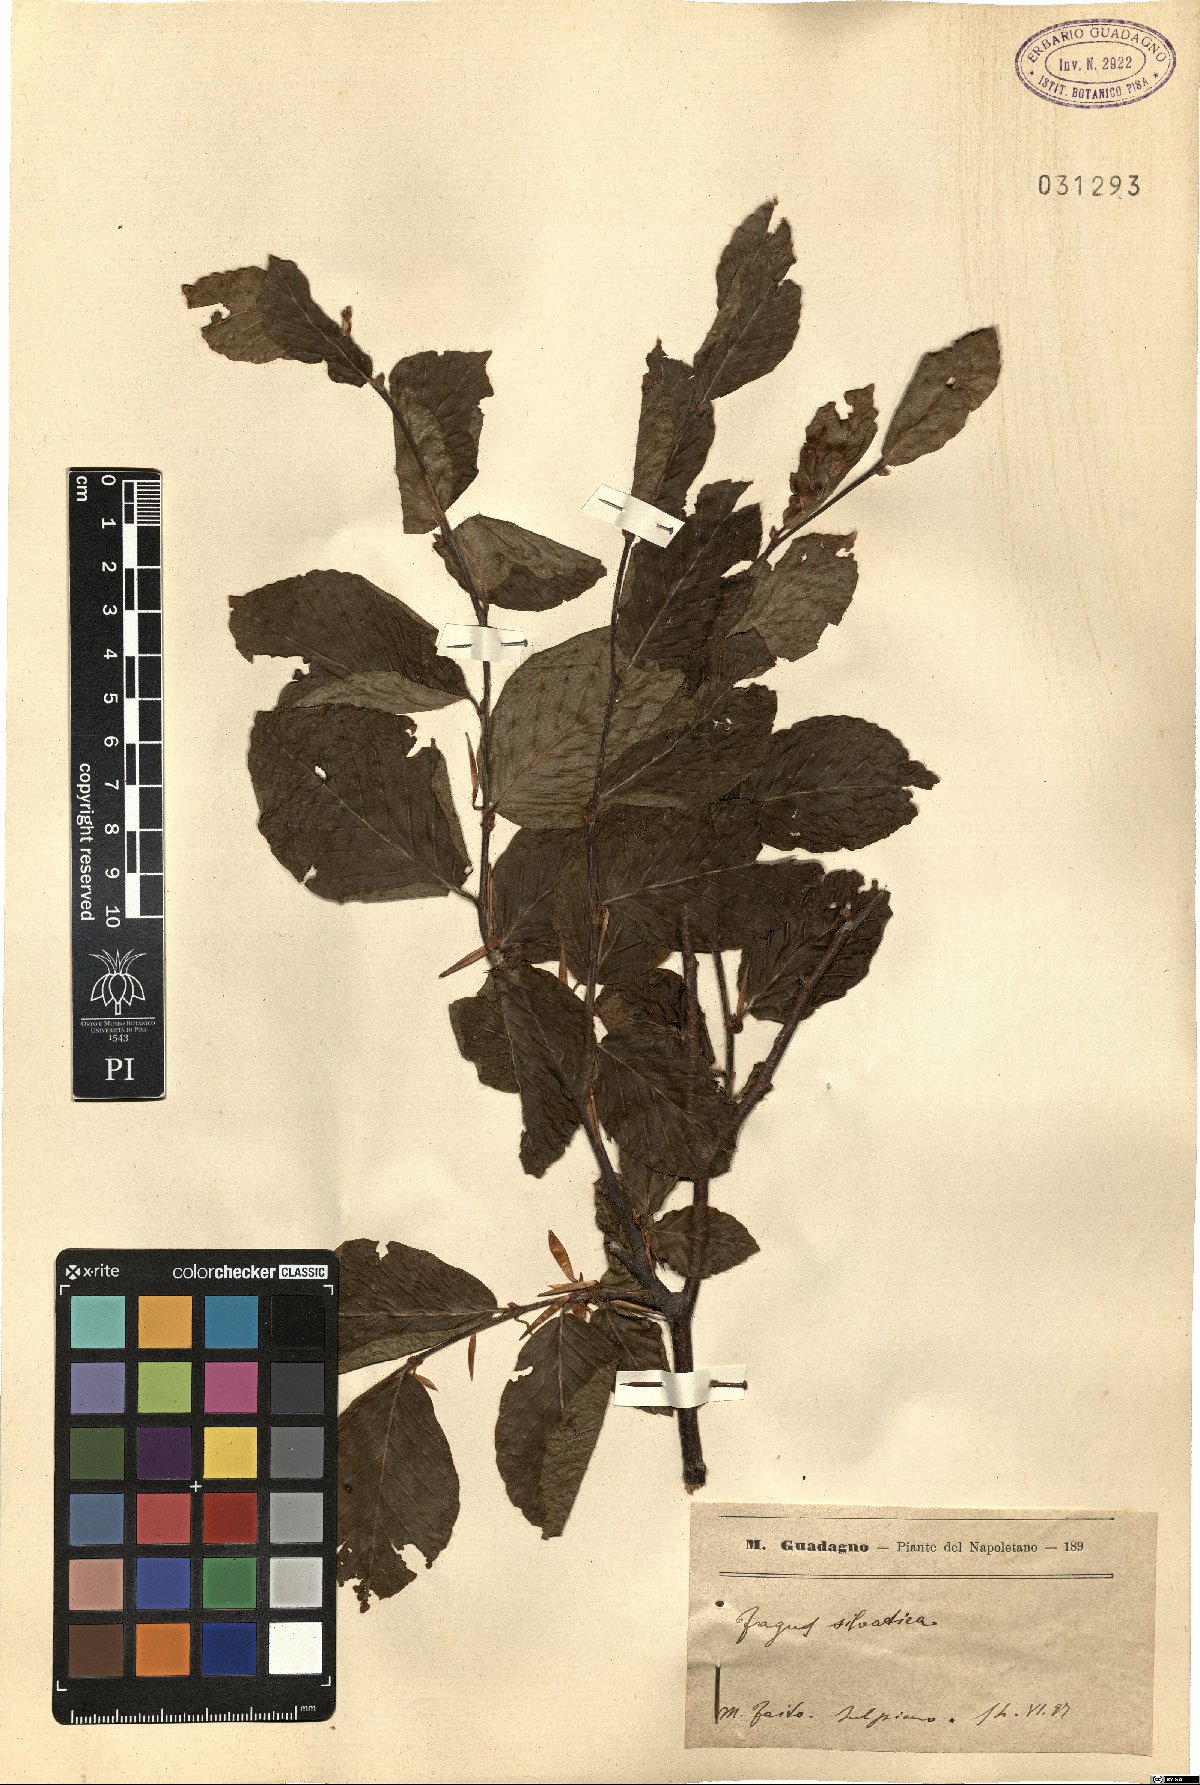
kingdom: Plantae
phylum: Tracheophyta
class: Magnoliopsida
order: Fagales
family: Fagaceae
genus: Fagus
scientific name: Fagus sylvatica
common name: Beech
